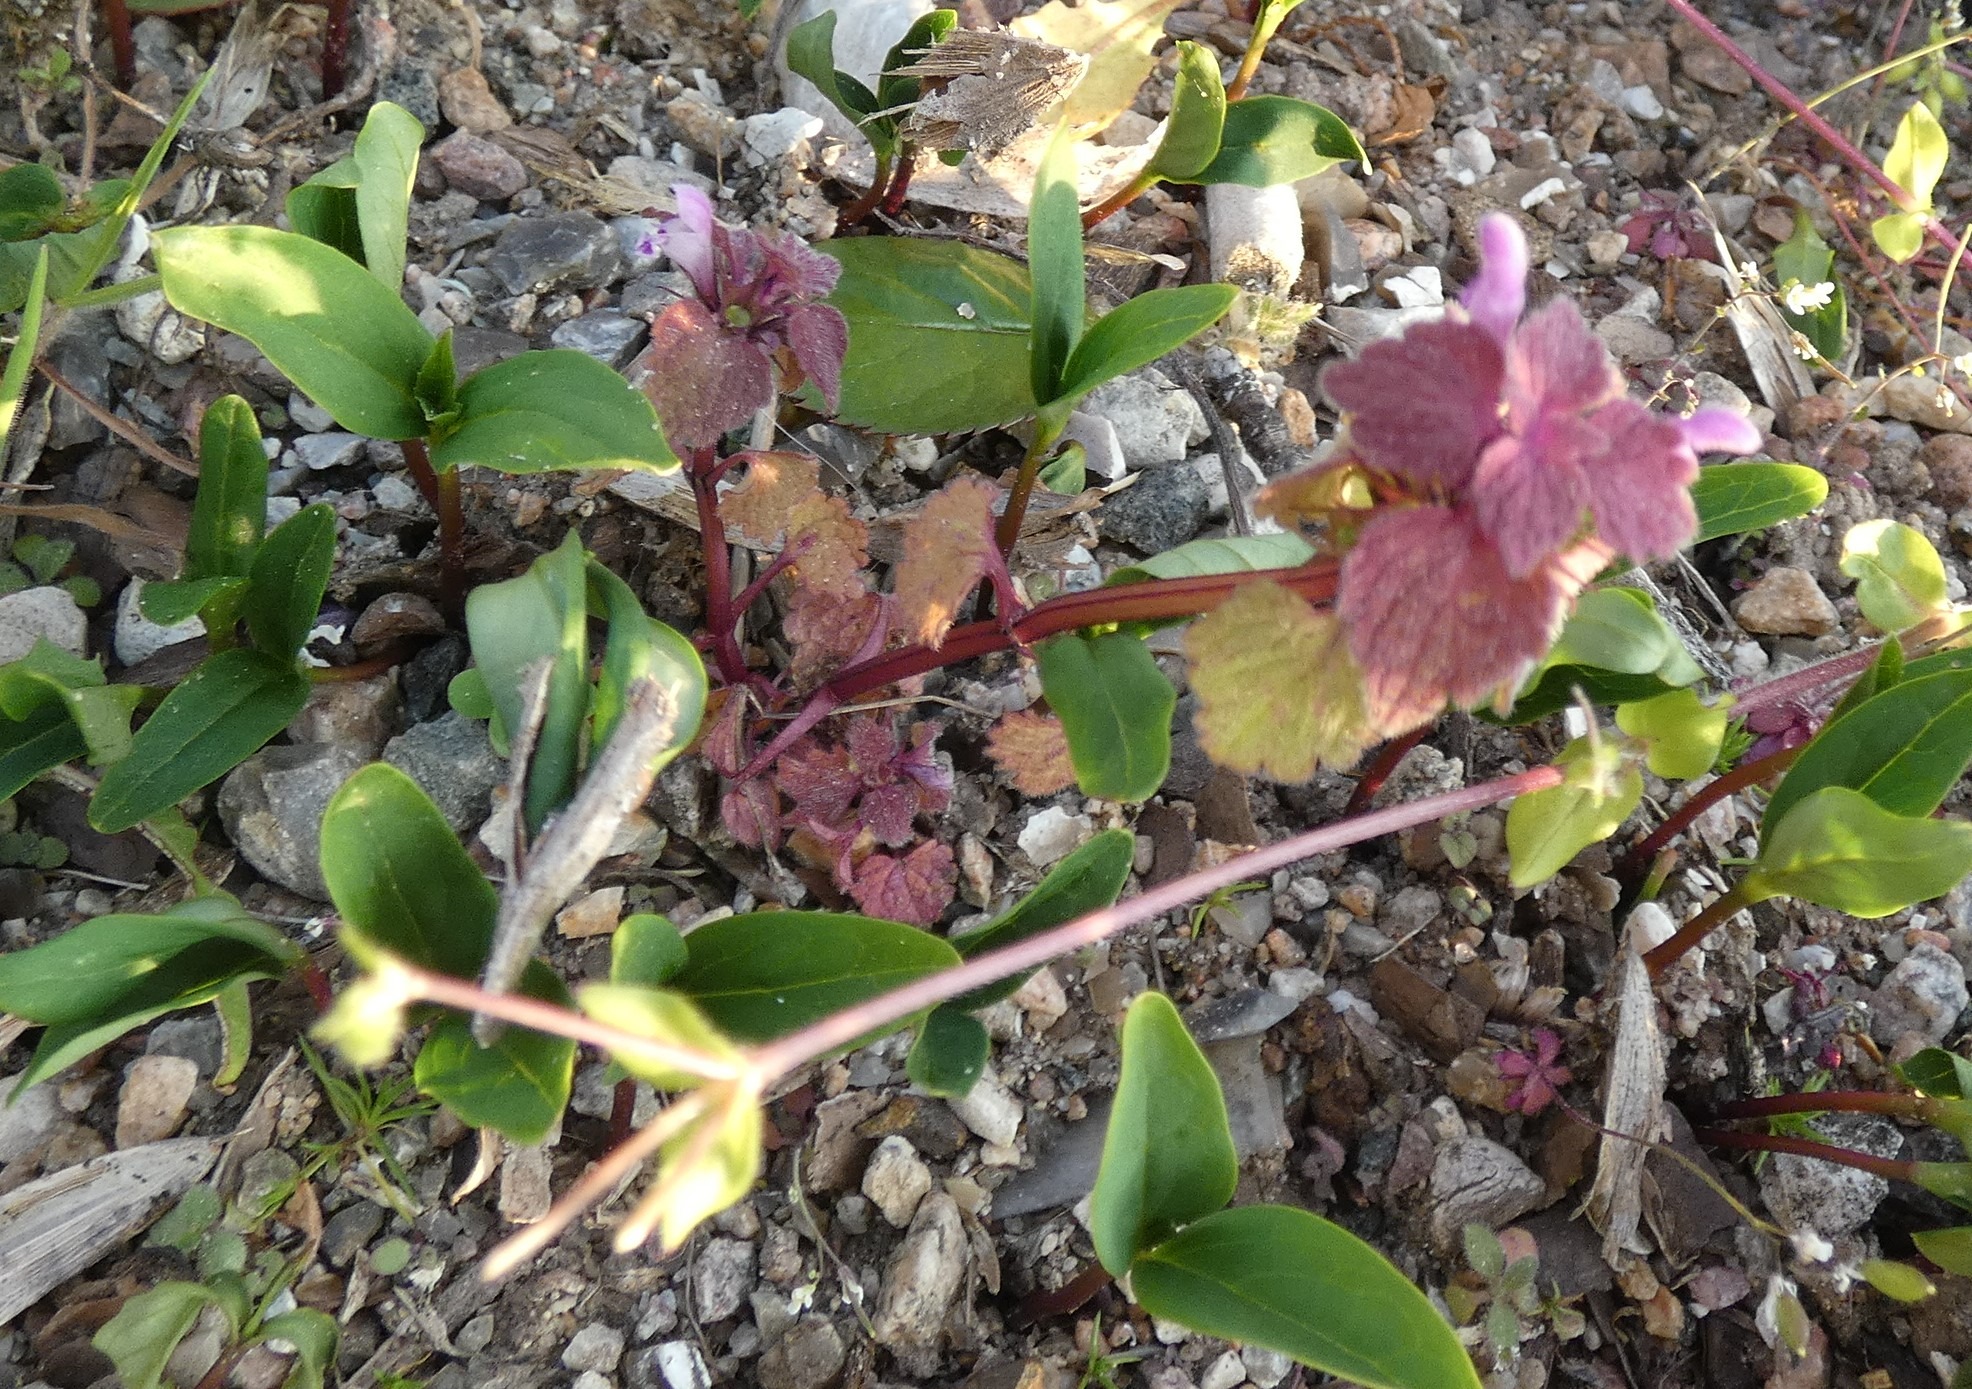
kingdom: Plantae
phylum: Tracheophyta
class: Magnoliopsida
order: Lamiales
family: Lamiaceae
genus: Lamium
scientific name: Lamium purpureum
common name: Rød tvetand
